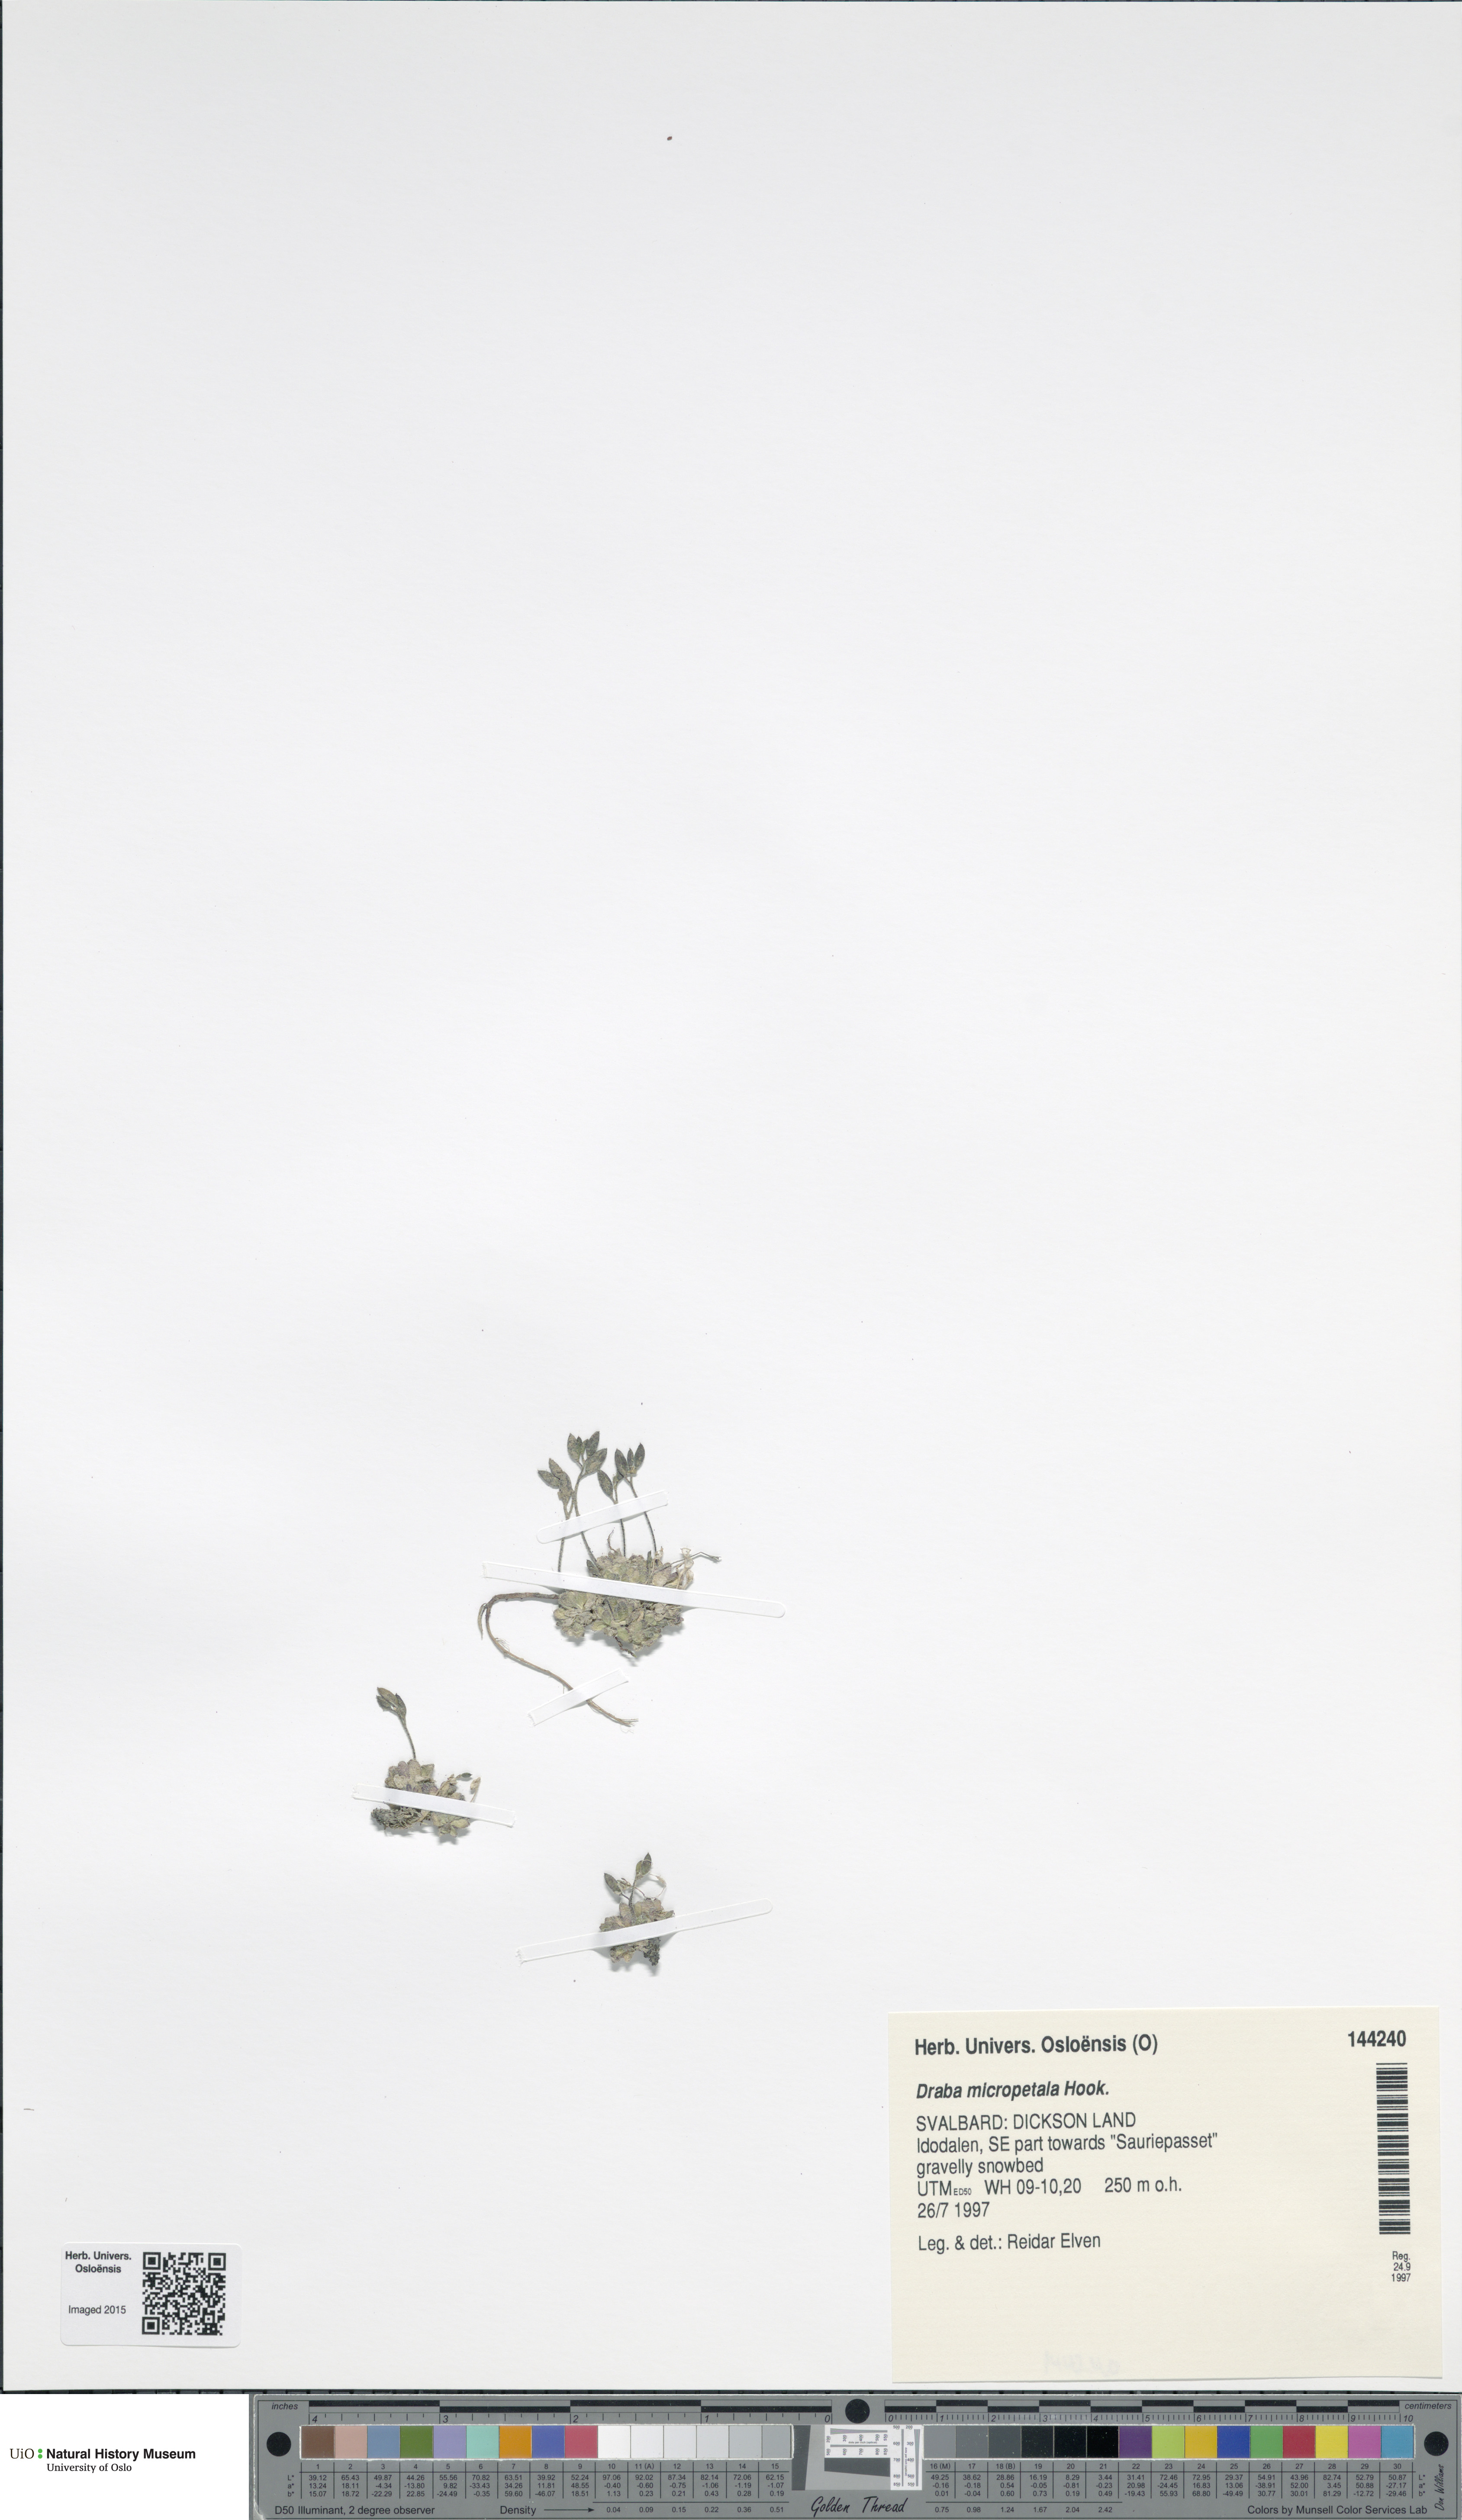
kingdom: Plantae
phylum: Tracheophyta
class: Magnoliopsida
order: Brassicales
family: Brassicaceae
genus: Draba
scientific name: Draba micropetala
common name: Small-flowered draba
